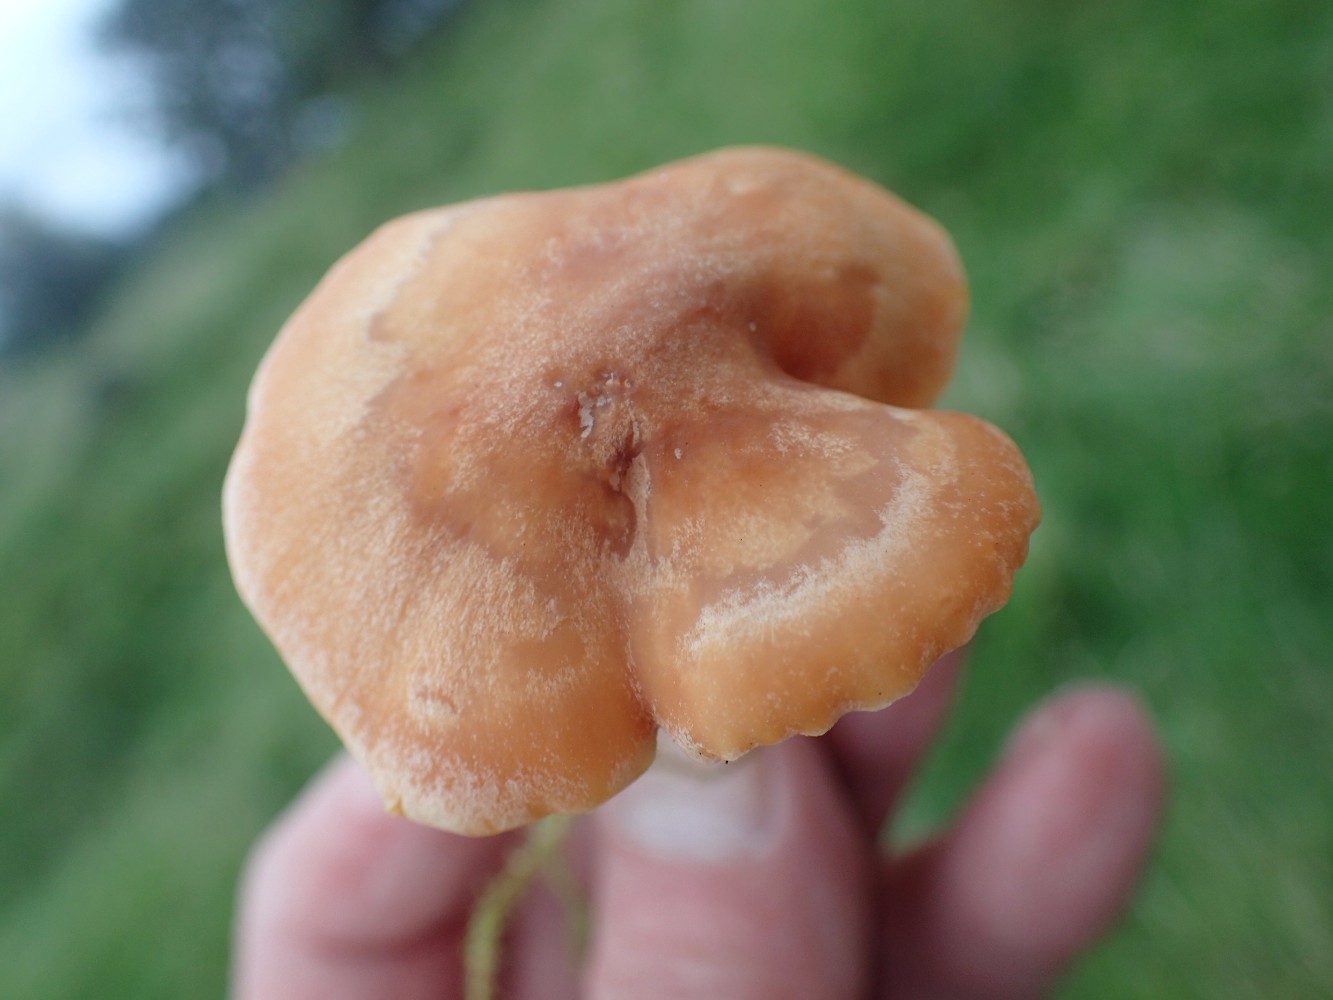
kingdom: Fungi
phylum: Basidiomycota
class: Agaricomycetes
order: Agaricales
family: Hygrophoraceae
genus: Cuphophyllus
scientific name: Cuphophyllus pratensis
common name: eng-vokshat
